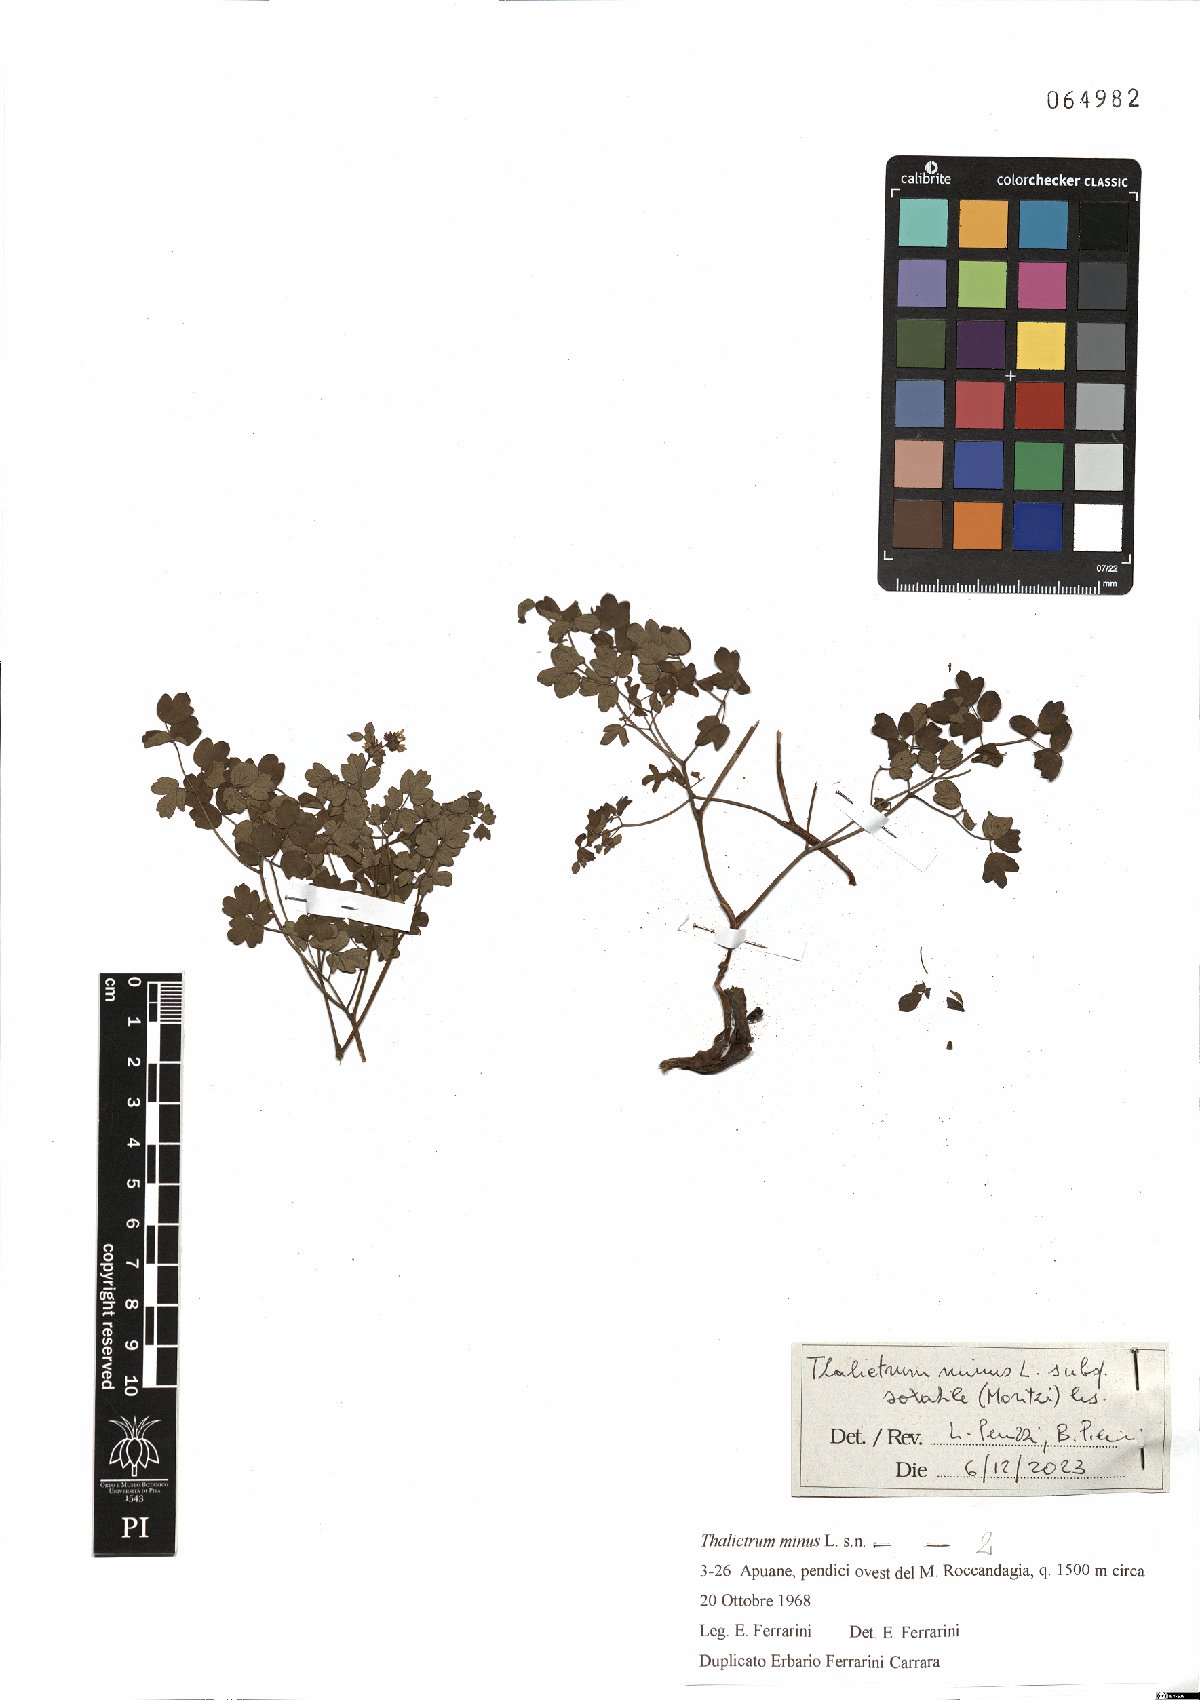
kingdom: Plantae
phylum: Tracheophyta
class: Magnoliopsida
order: Ranunculales
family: Ranunculaceae
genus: Thalictrum
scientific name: Thalictrum minus
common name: Lesser meadow-rue
